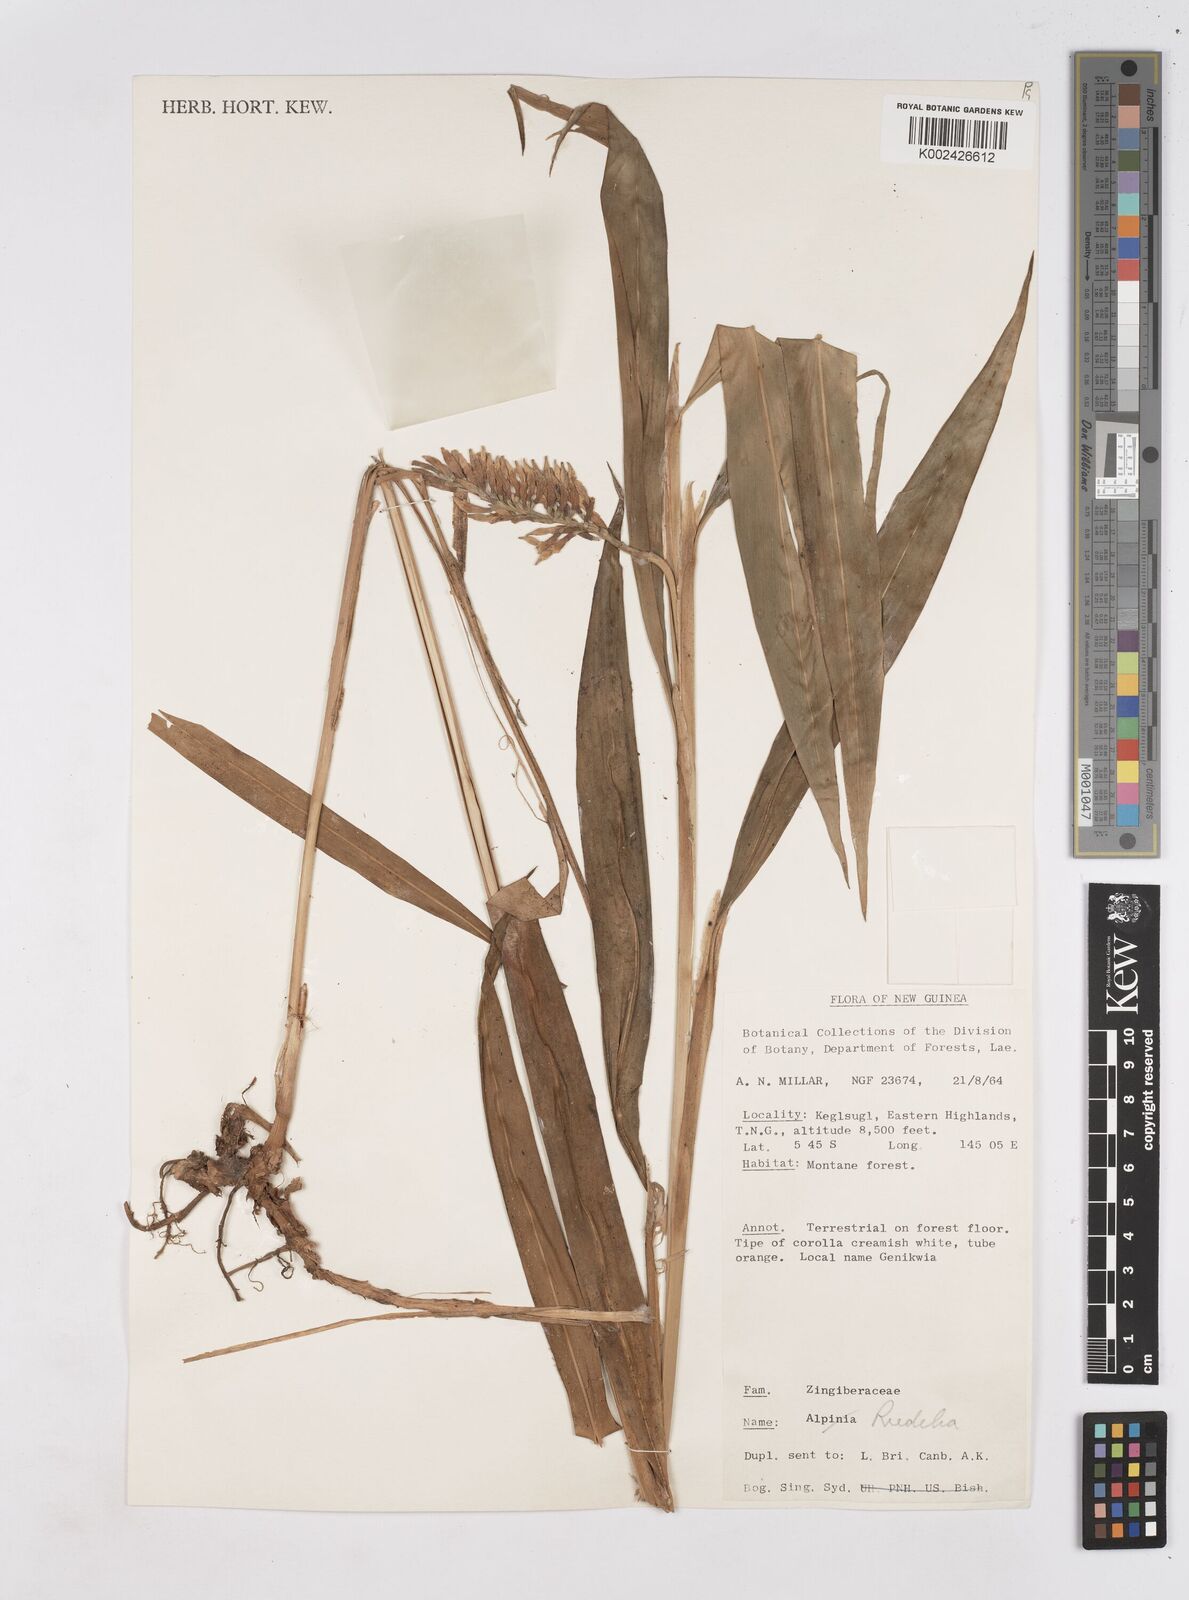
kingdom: Plantae
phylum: Tracheophyta
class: Liliopsida
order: Zingiberales
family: Zingiberaceae
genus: Riedelia
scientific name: Riedelia
